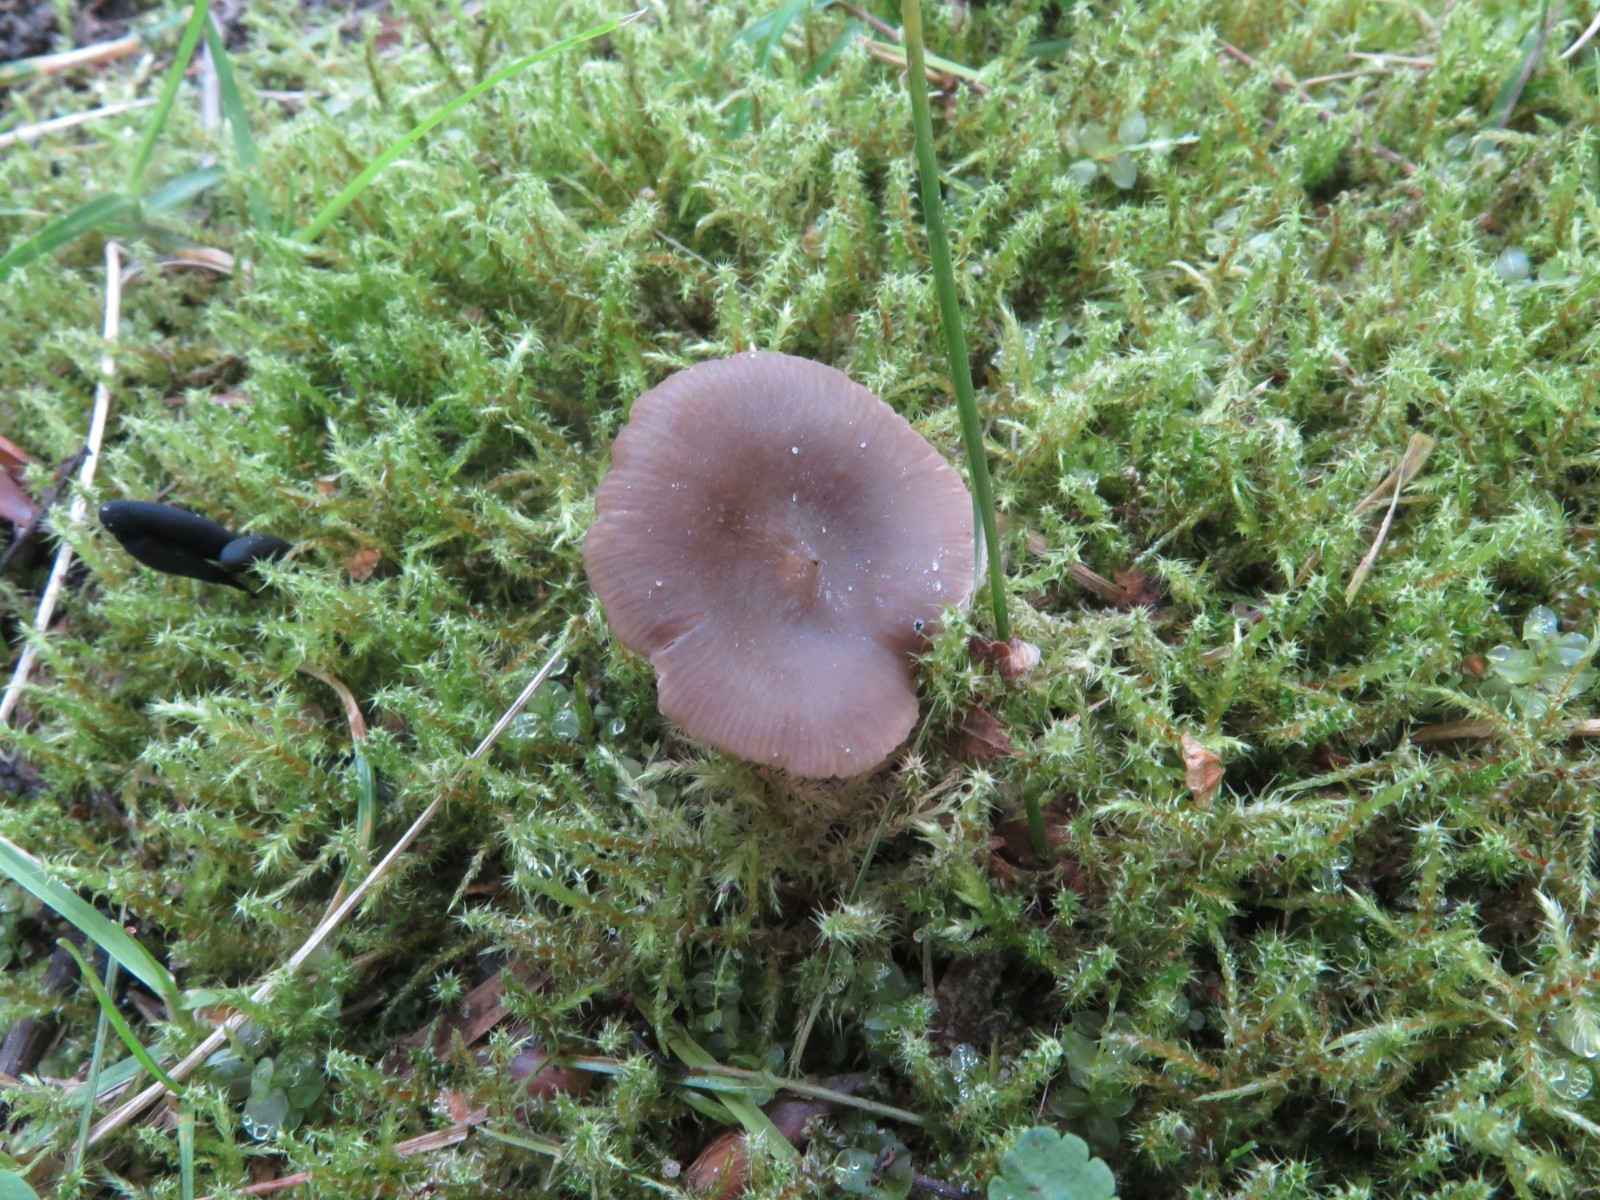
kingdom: Fungi
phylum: Basidiomycota
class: Agaricomycetes
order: Agaricales
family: Entolomataceae
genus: Entoloma
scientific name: Entoloma
